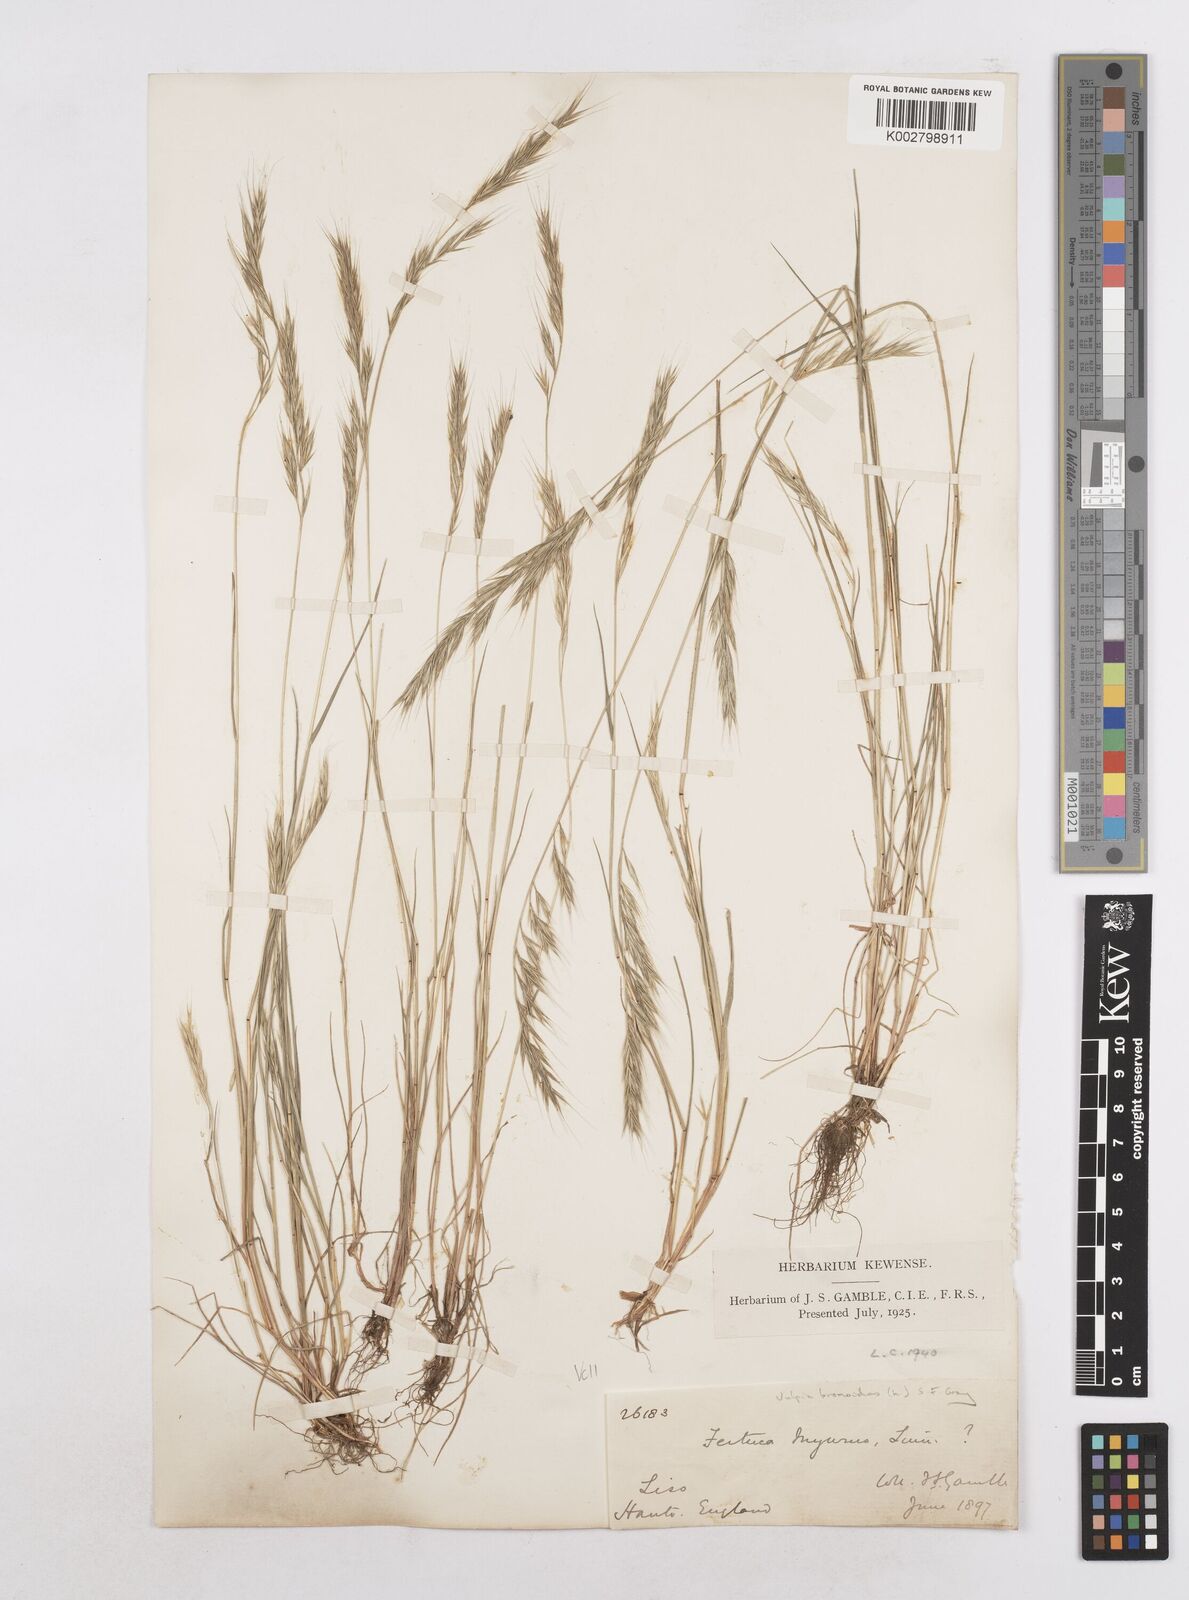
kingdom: Plantae
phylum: Tracheophyta
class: Liliopsida
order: Poales
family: Poaceae
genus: Festuca
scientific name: Festuca bromoides
